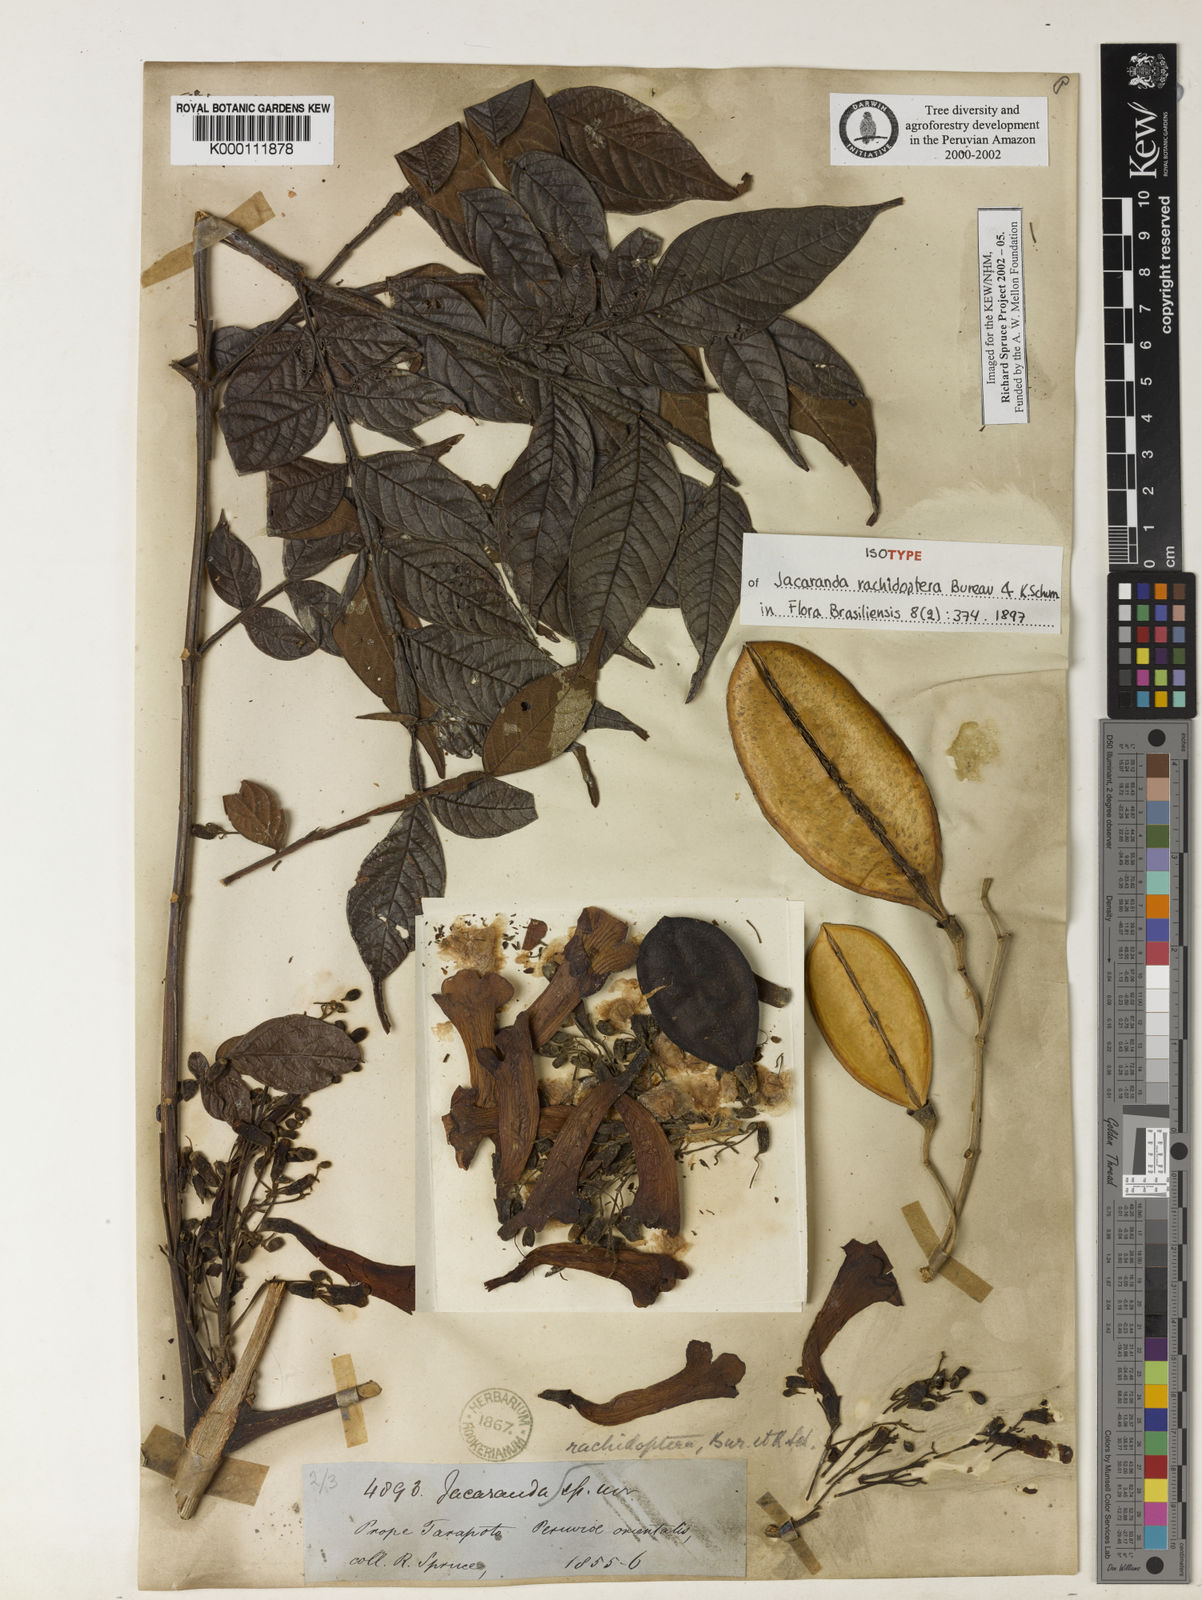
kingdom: Plantae
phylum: Tracheophyta
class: Magnoliopsida
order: Lamiales
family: Bignoniaceae
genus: Jacaranda
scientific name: Jacaranda glabra
